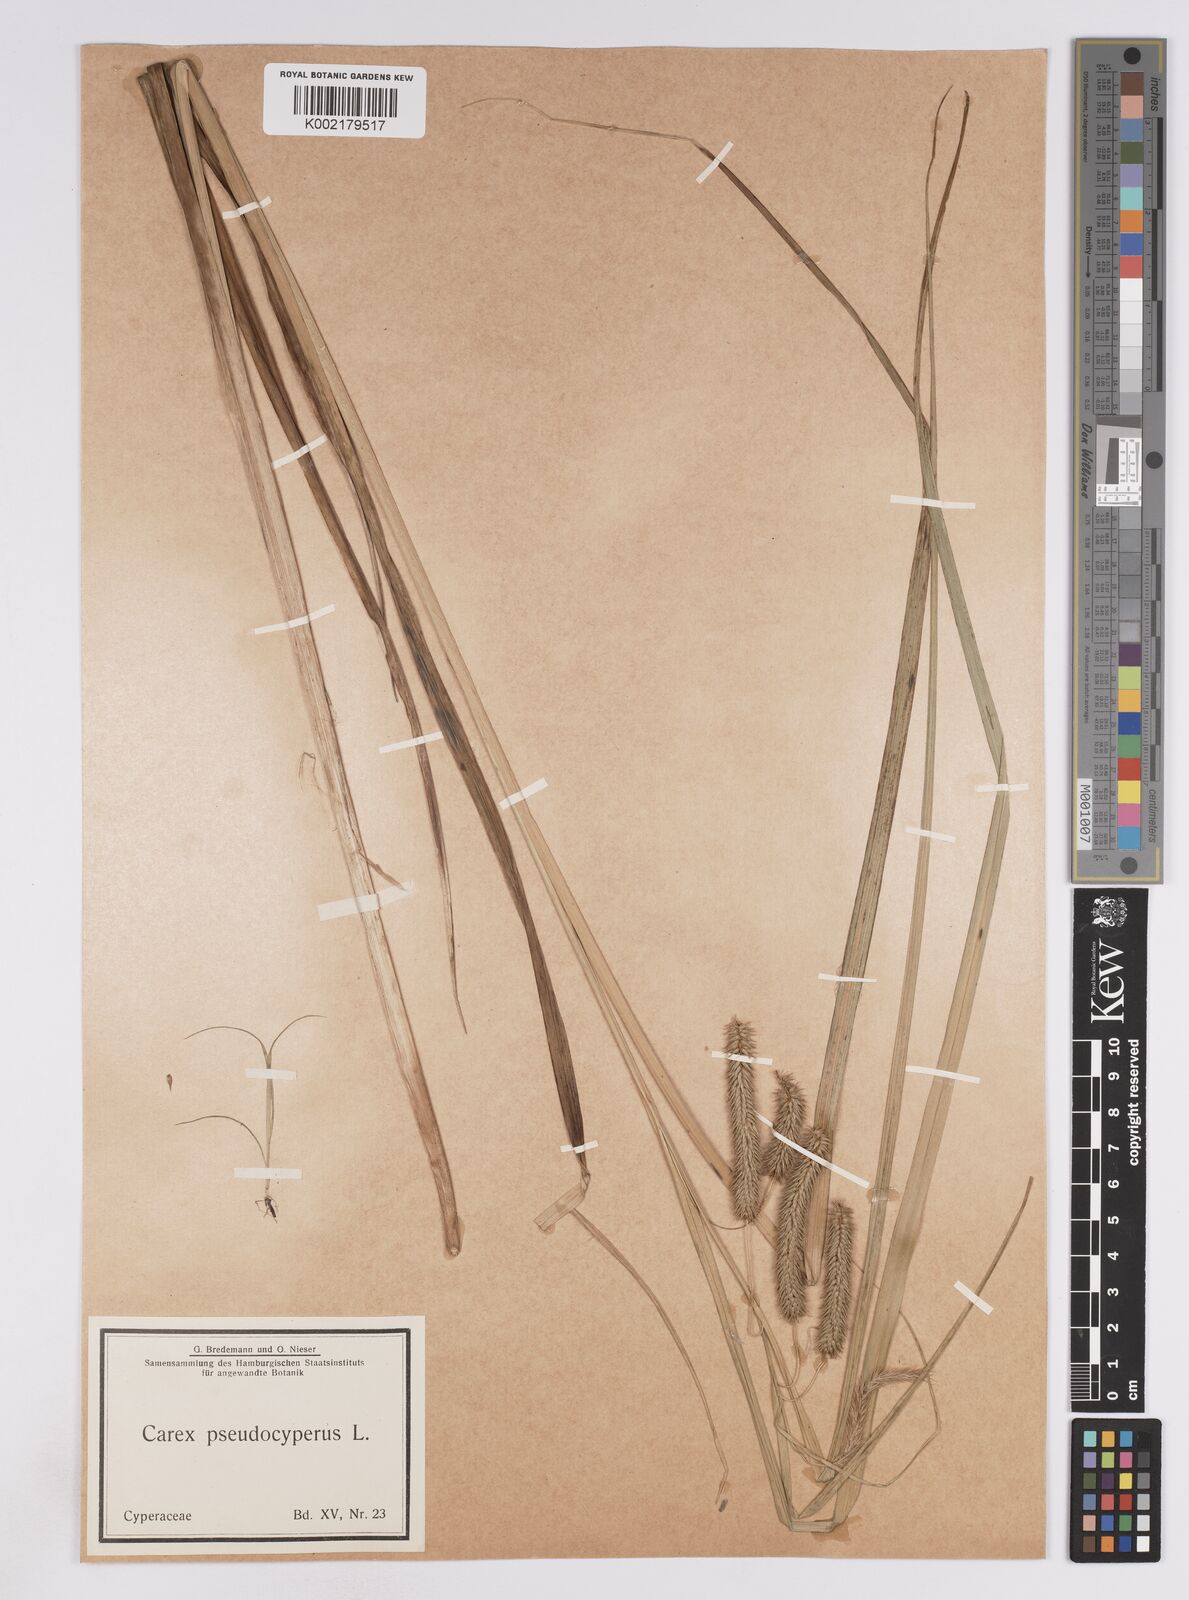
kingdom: Plantae
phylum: Tracheophyta
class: Liliopsida
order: Poales
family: Cyperaceae
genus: Carex
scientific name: Carex pseudocyperus
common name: Cyperus sedge
